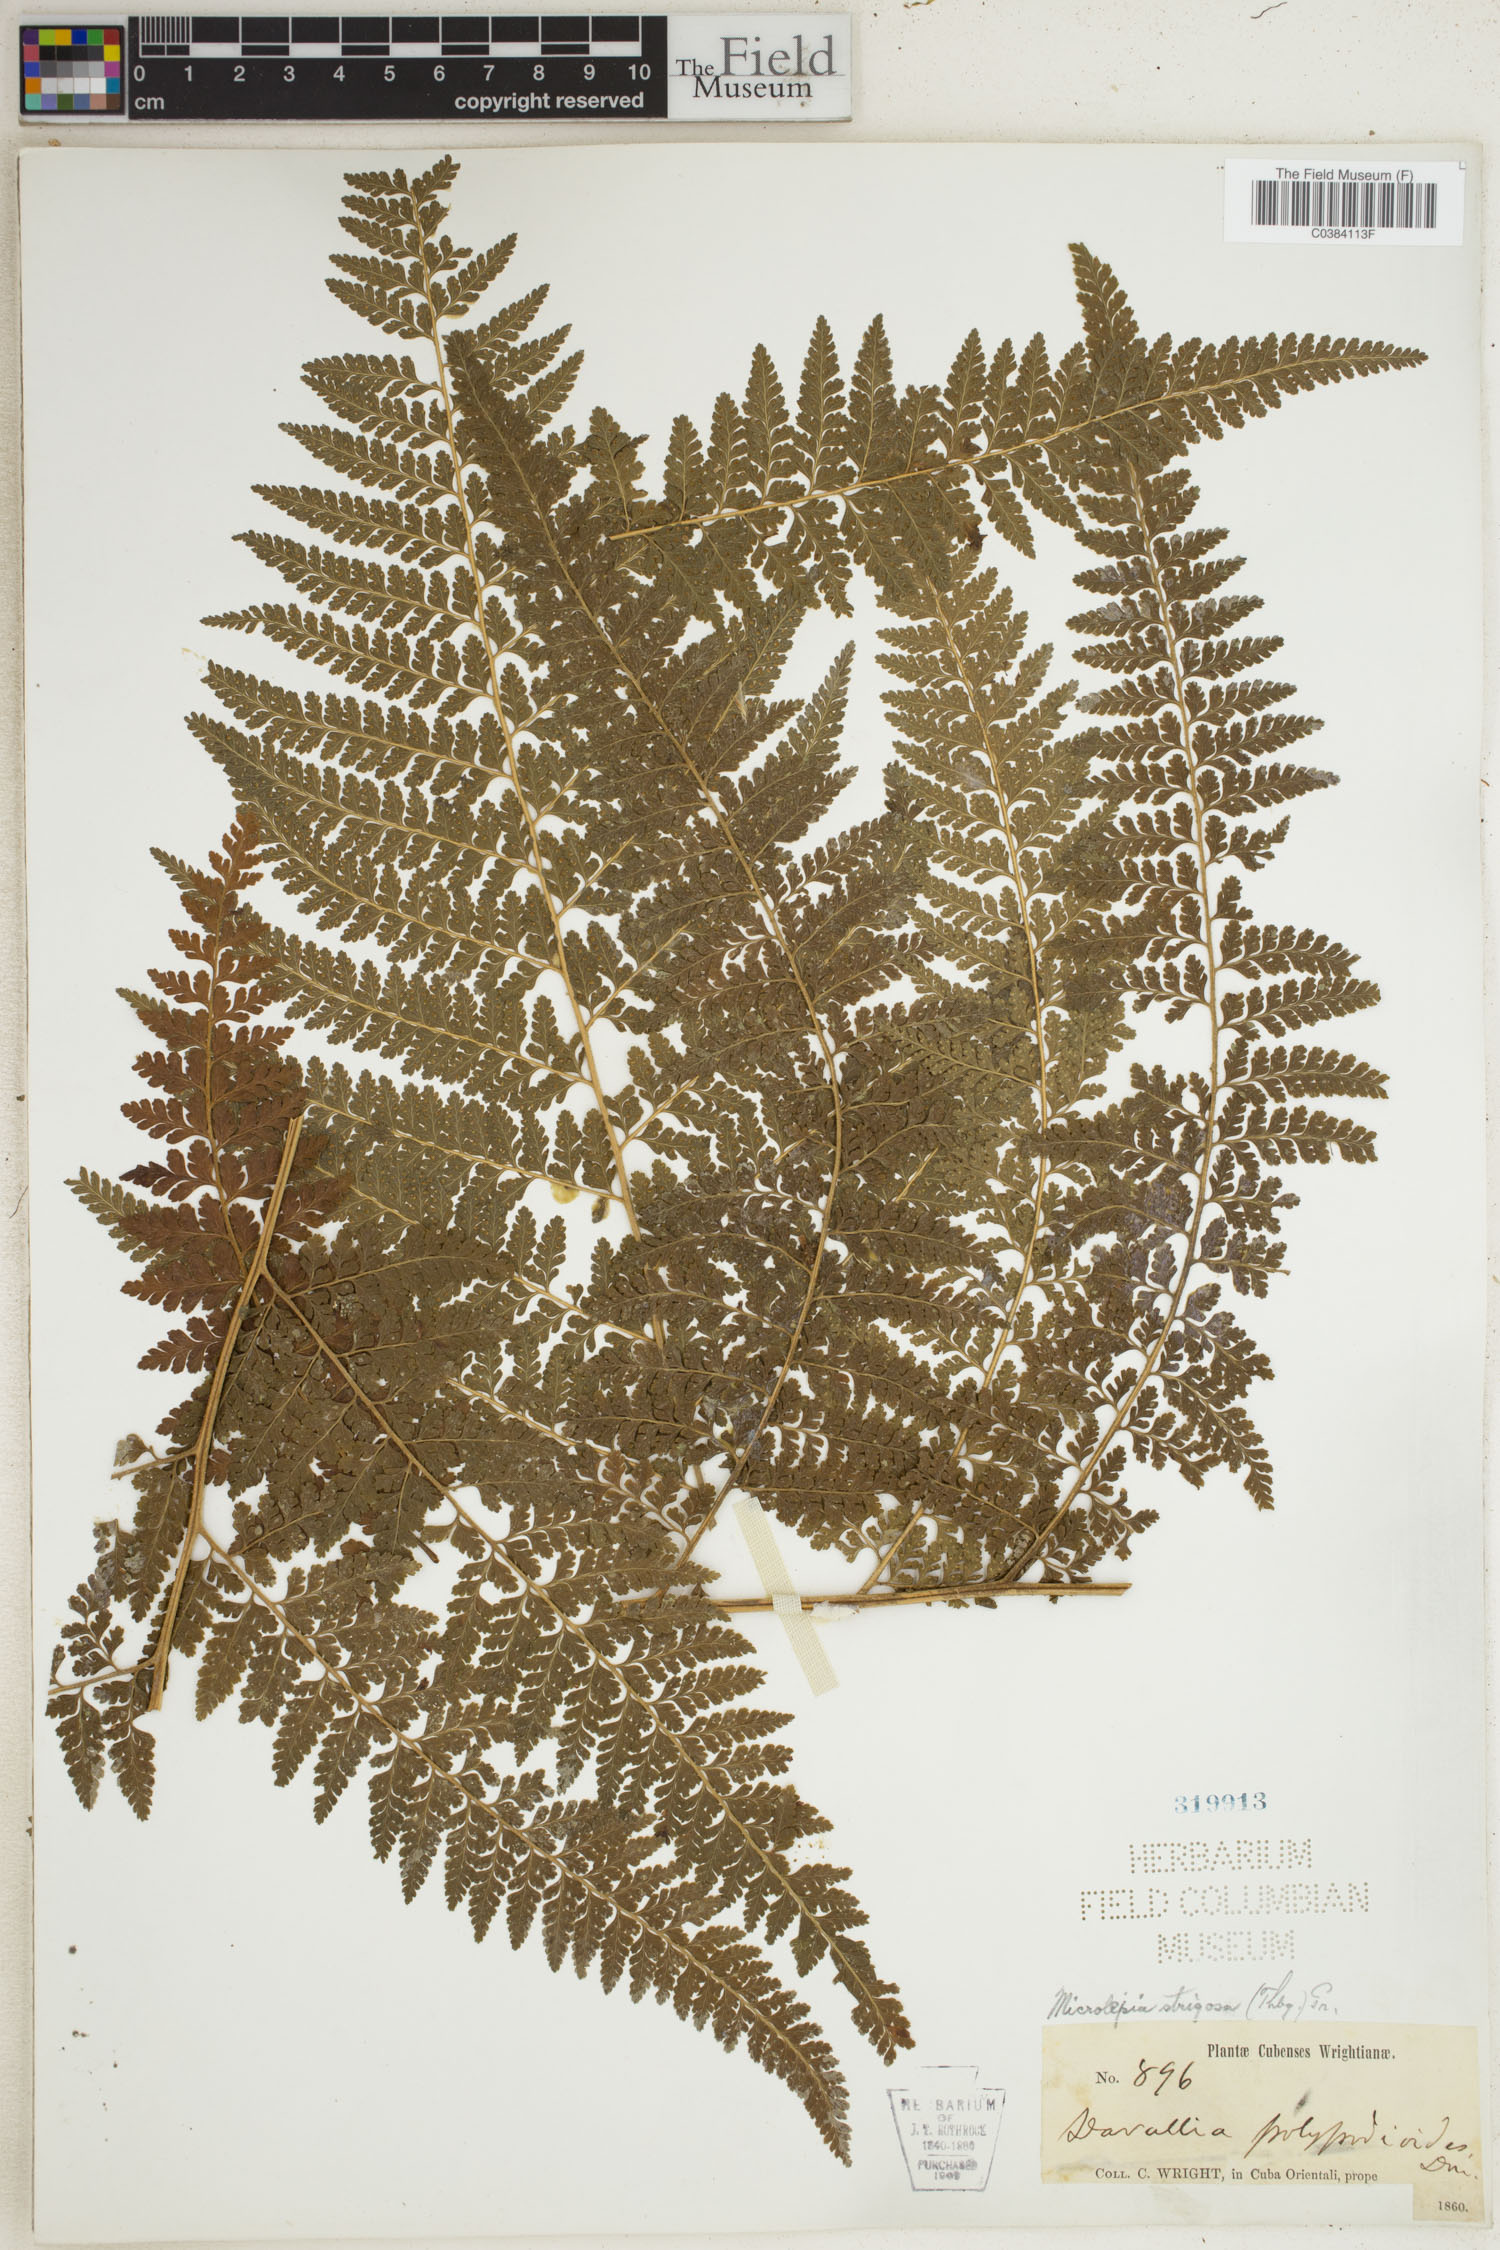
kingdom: Plantae
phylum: Tracheophyta
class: Polypodiopsida
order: Polypodiales
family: Dennstaedtiaceae
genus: Microlepia
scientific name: Microlepia strigosa
